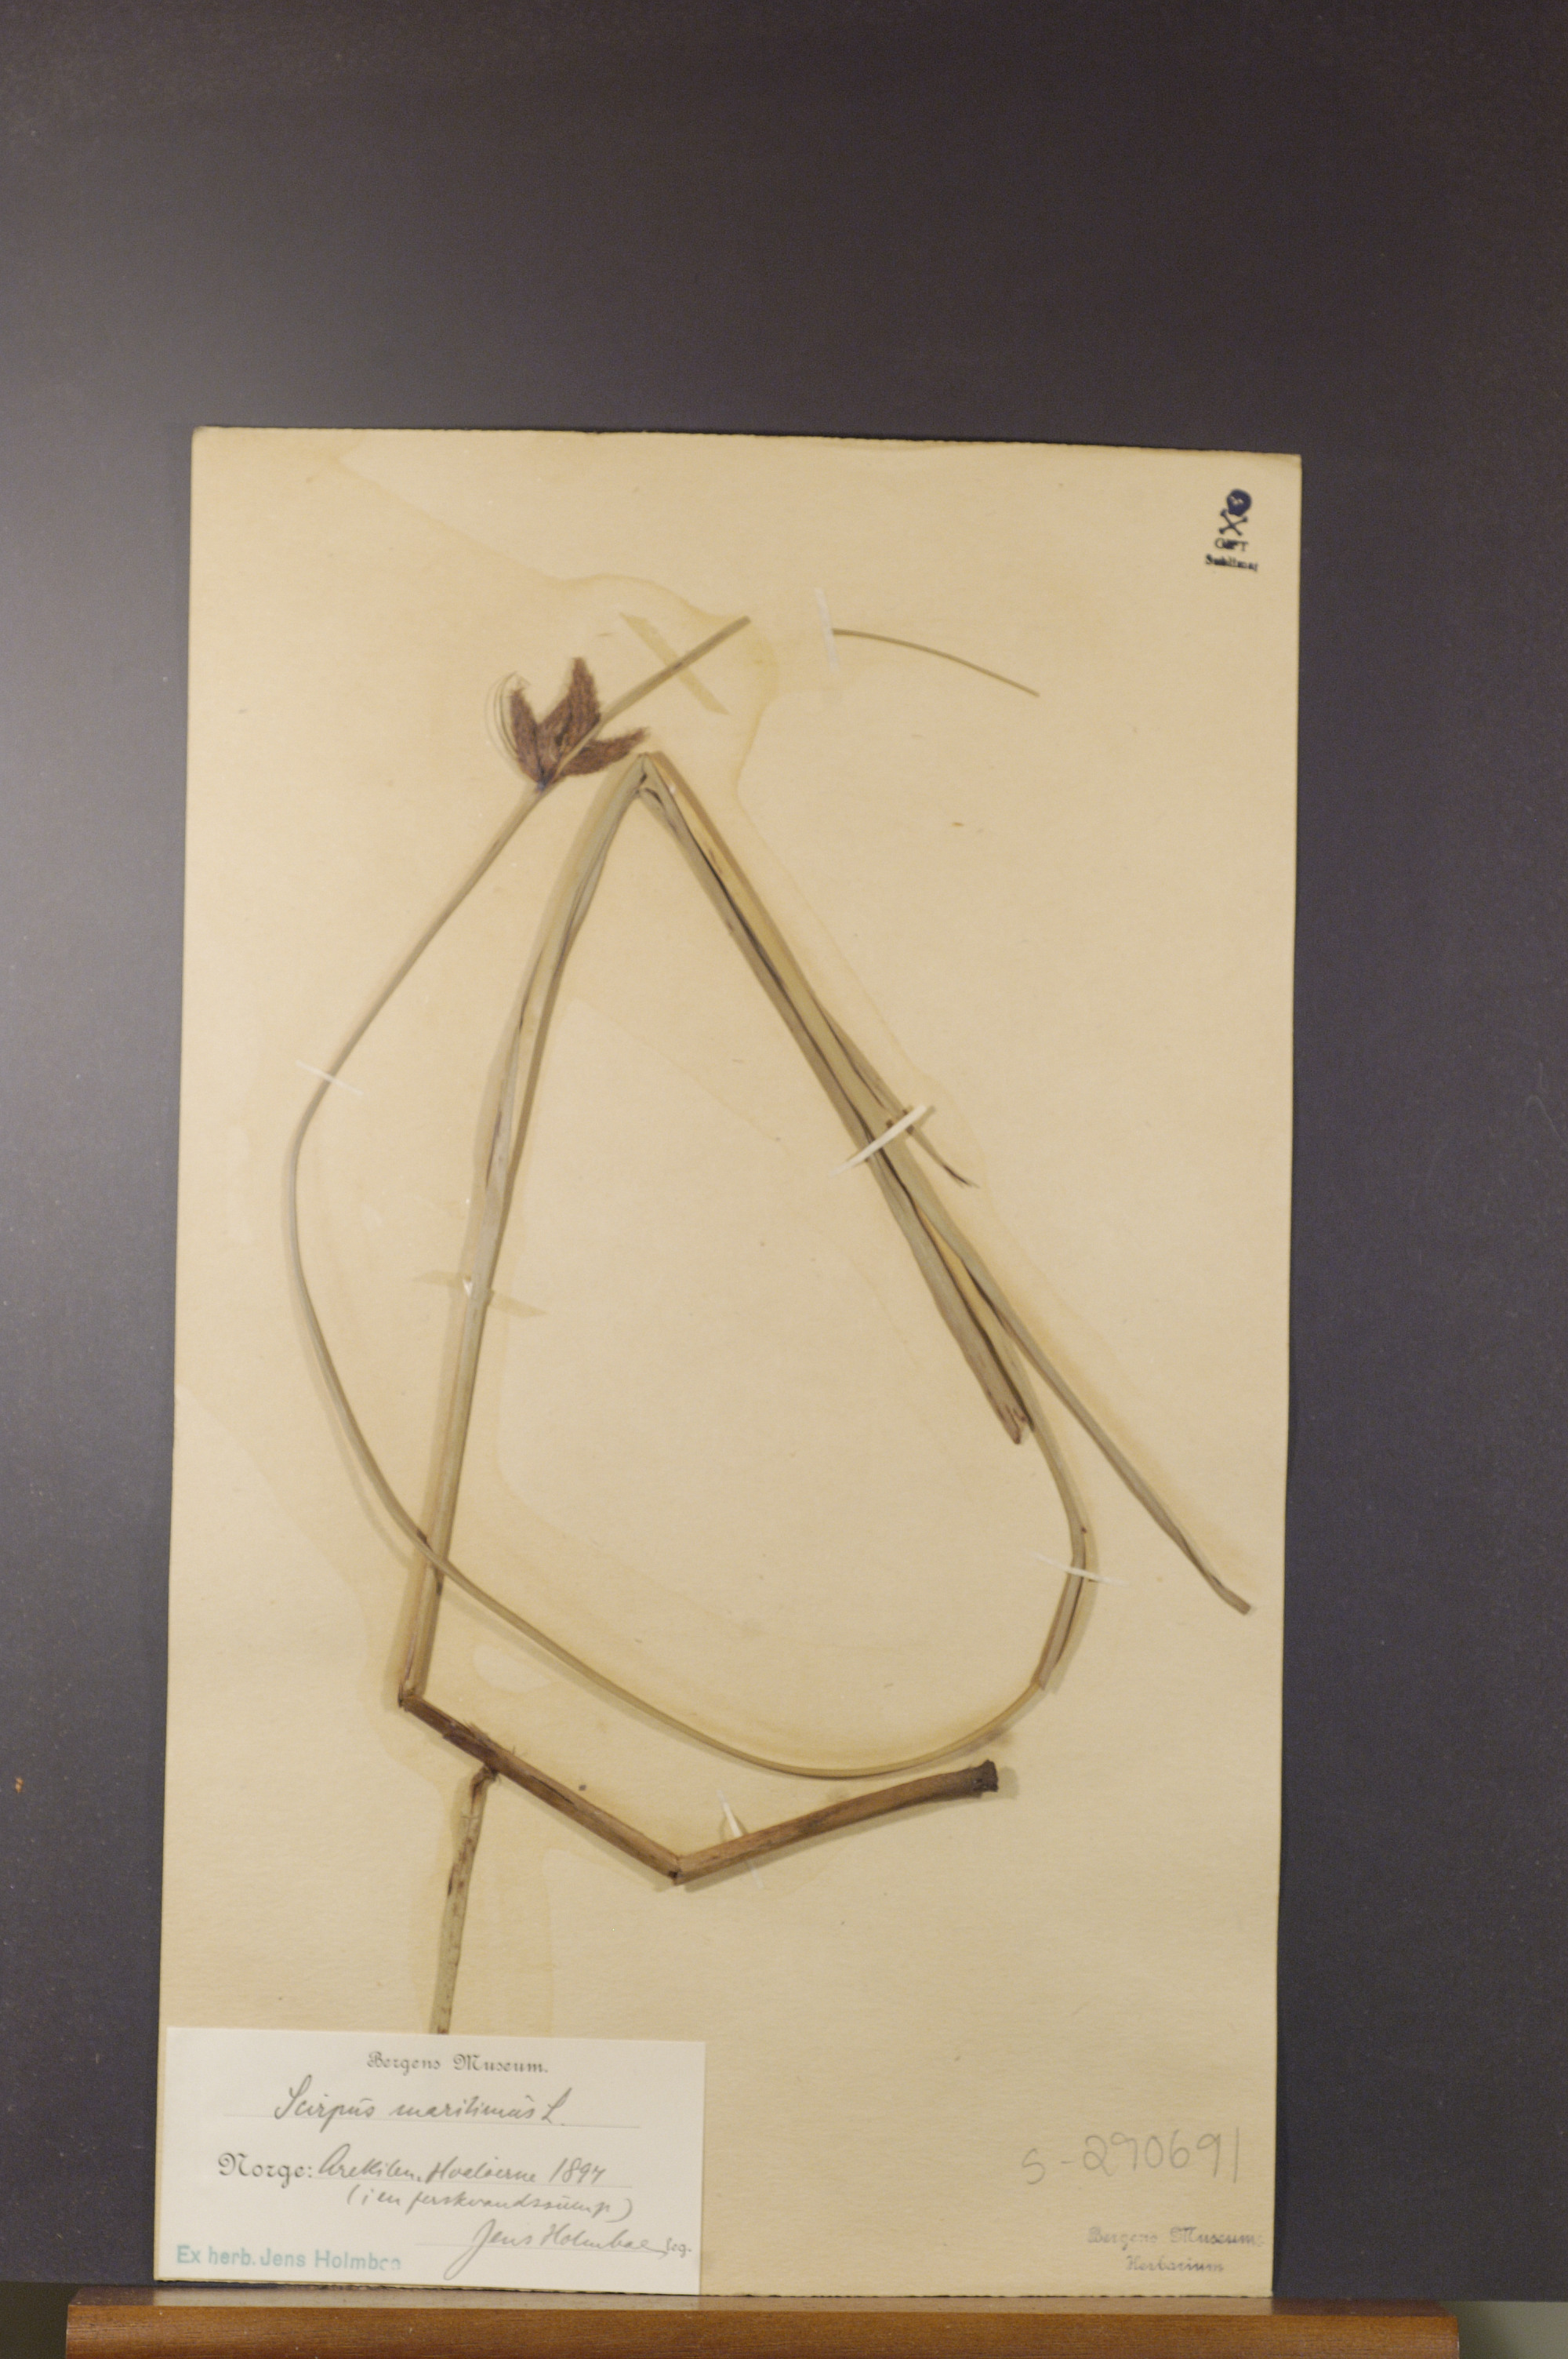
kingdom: Plantae
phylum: Tracheophyta
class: Liliopsida
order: Poales
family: Cyperaceae
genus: Bolboschoenus
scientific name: Bolboschoenus maritimus
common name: Sea club-rush
